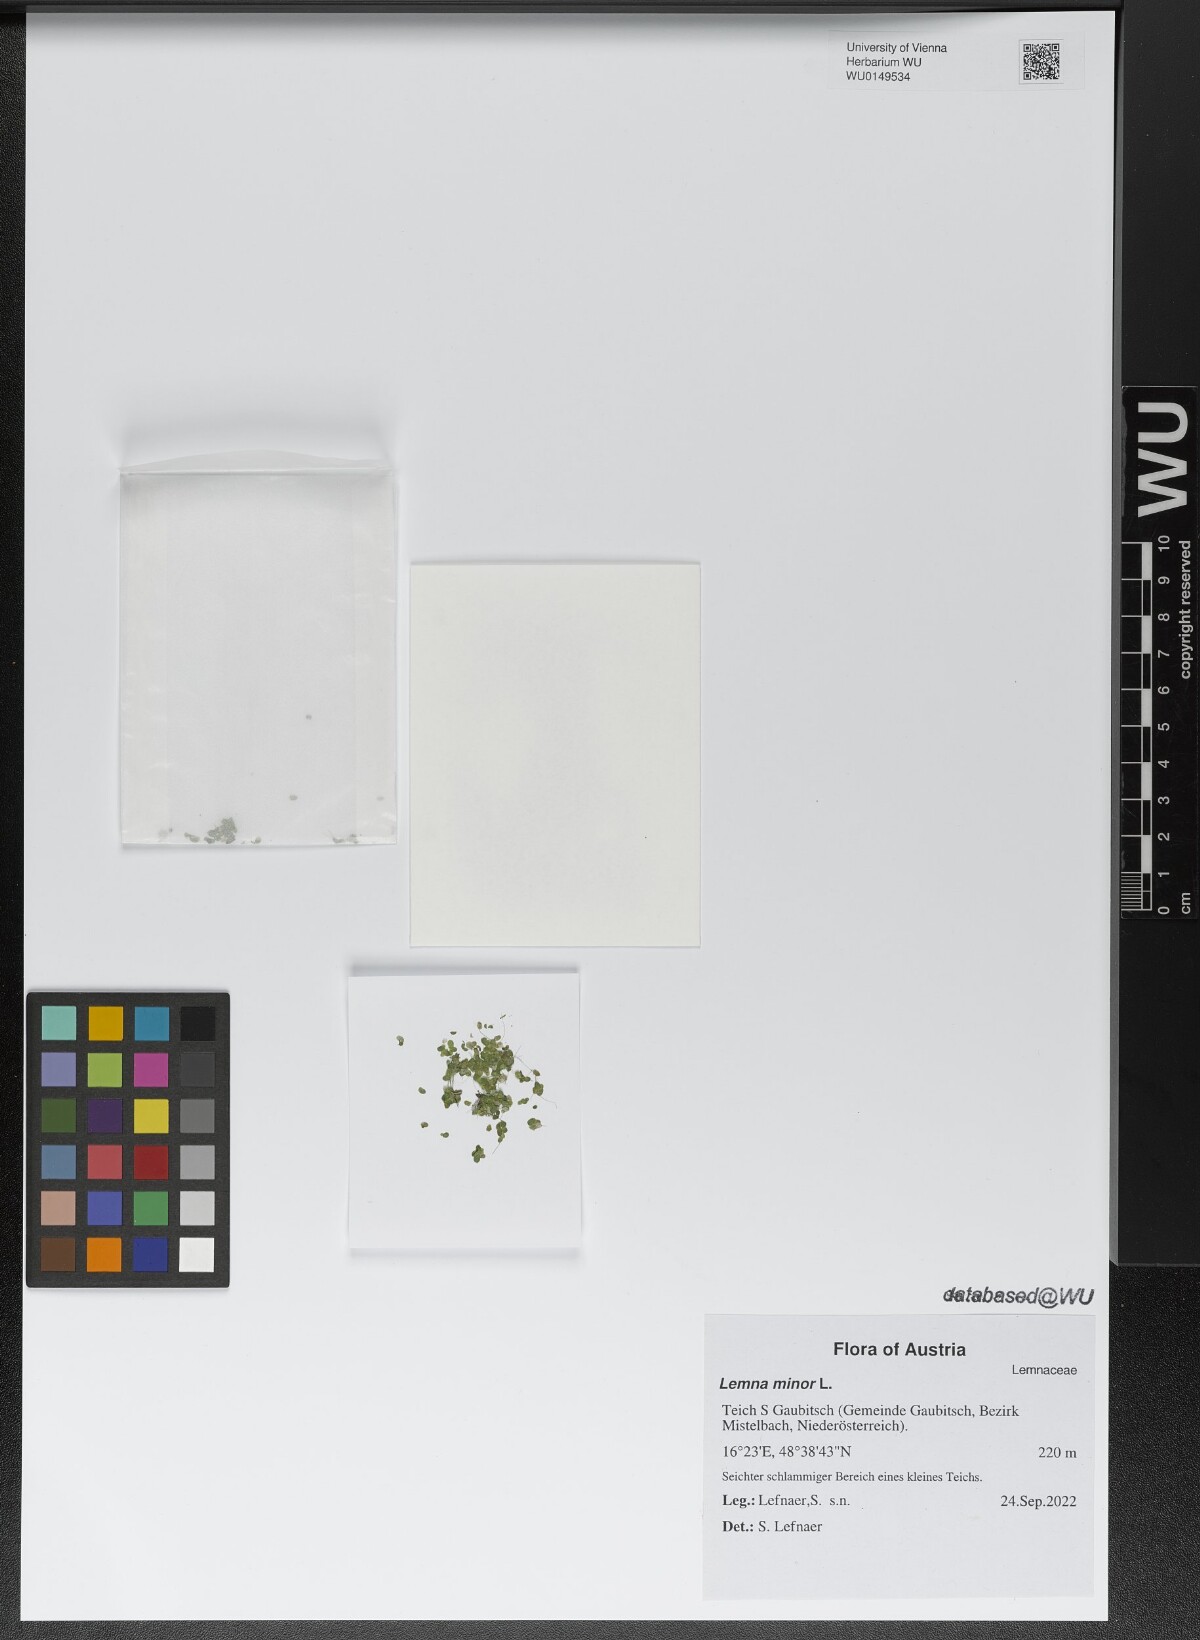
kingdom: Plantae
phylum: Tracheophyta
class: Liliopsida
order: Alismatales
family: Araceae
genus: Lemna
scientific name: Lemna minor
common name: Common duckweed
